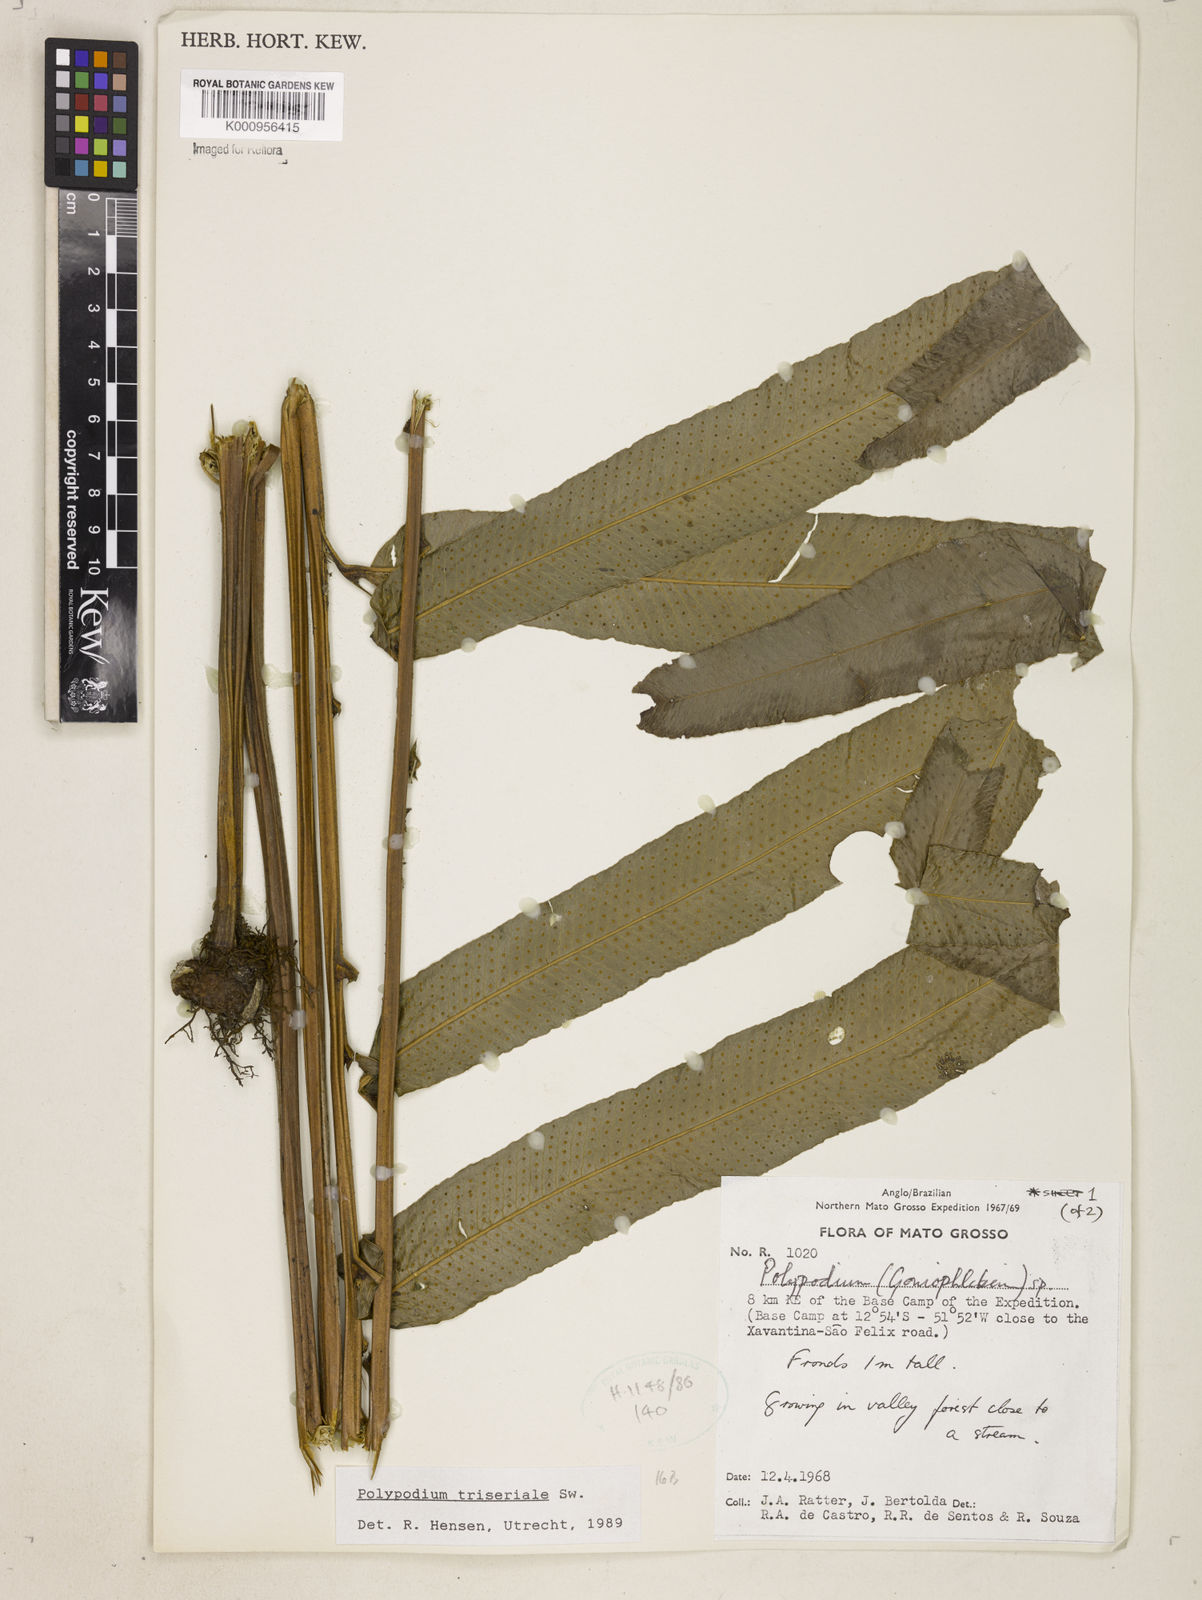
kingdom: Plantae
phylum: Tracheophyta
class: Polypodiopsida
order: Polypodiales
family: Polypodiaceae
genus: Serpocaulon
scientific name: Serpocaulon triseriale
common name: Angle-vein fern
